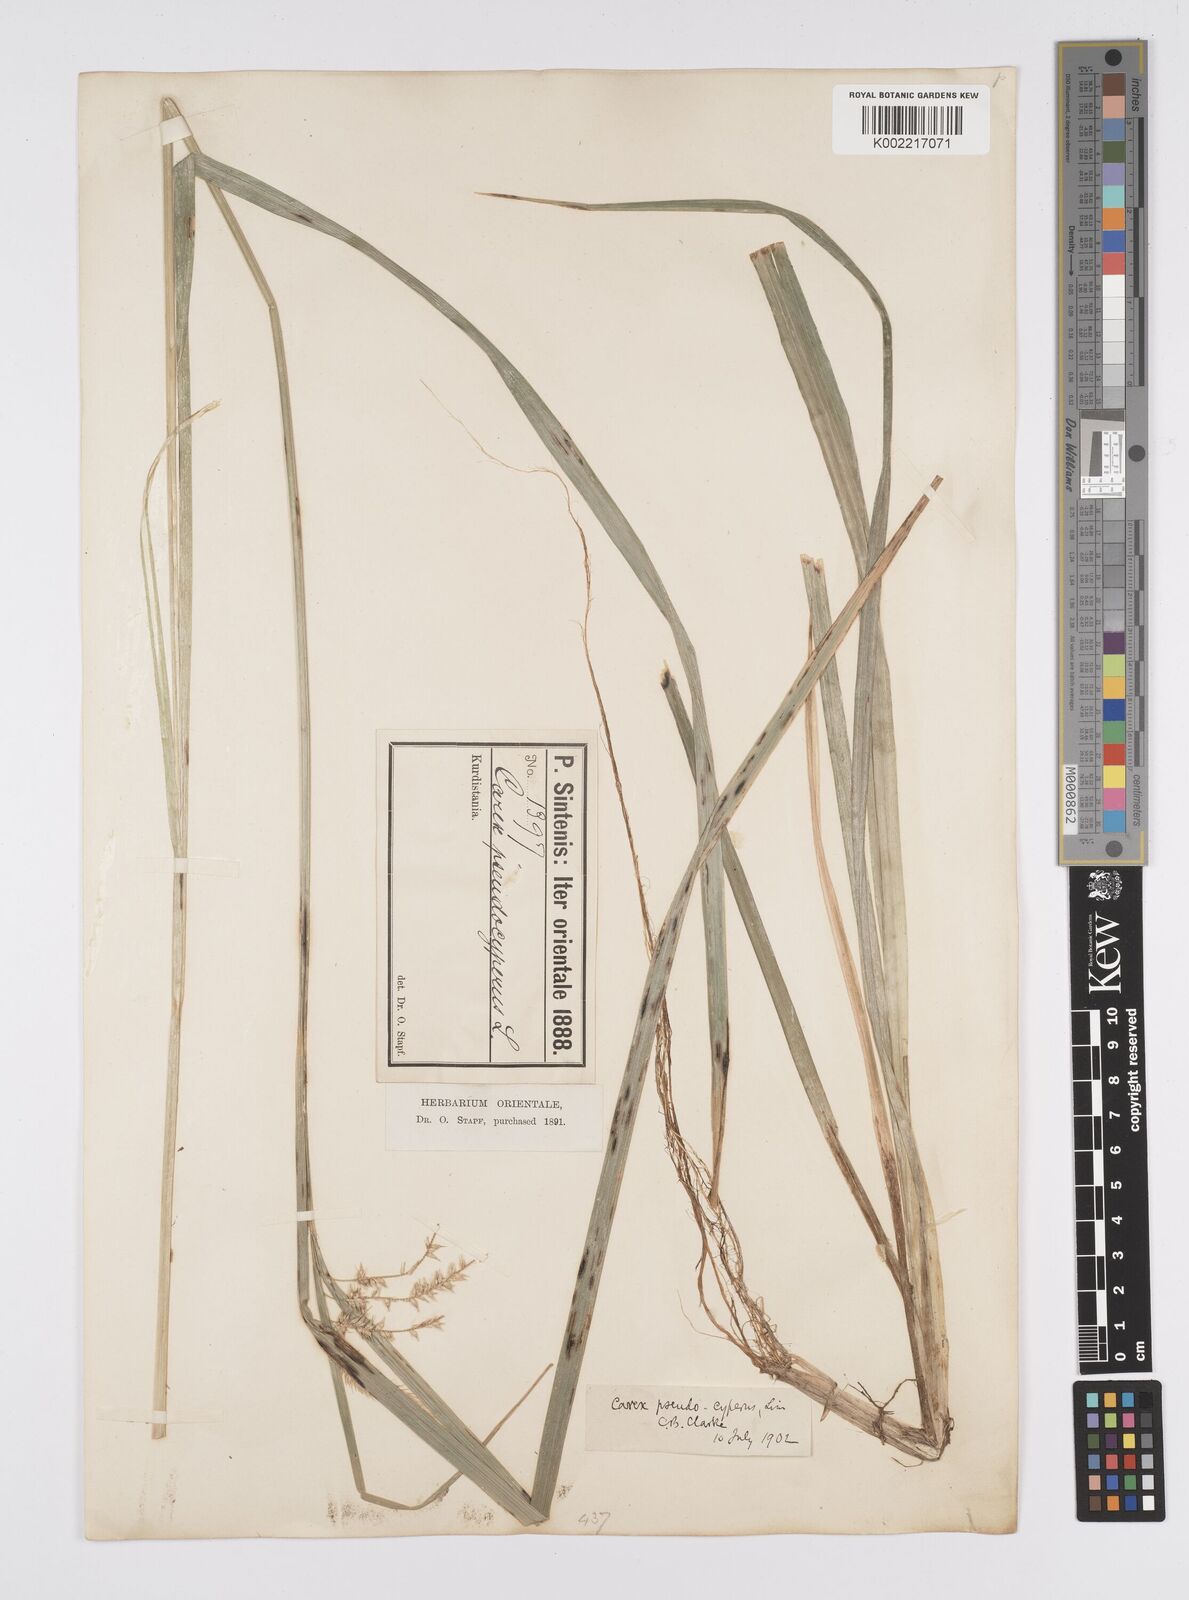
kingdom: Plantae
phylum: Tracheophyta
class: Liliopsida
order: Poales
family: Cyperaceae
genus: Carex
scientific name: Carex pseudocyperus
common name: Cyperus sedge
